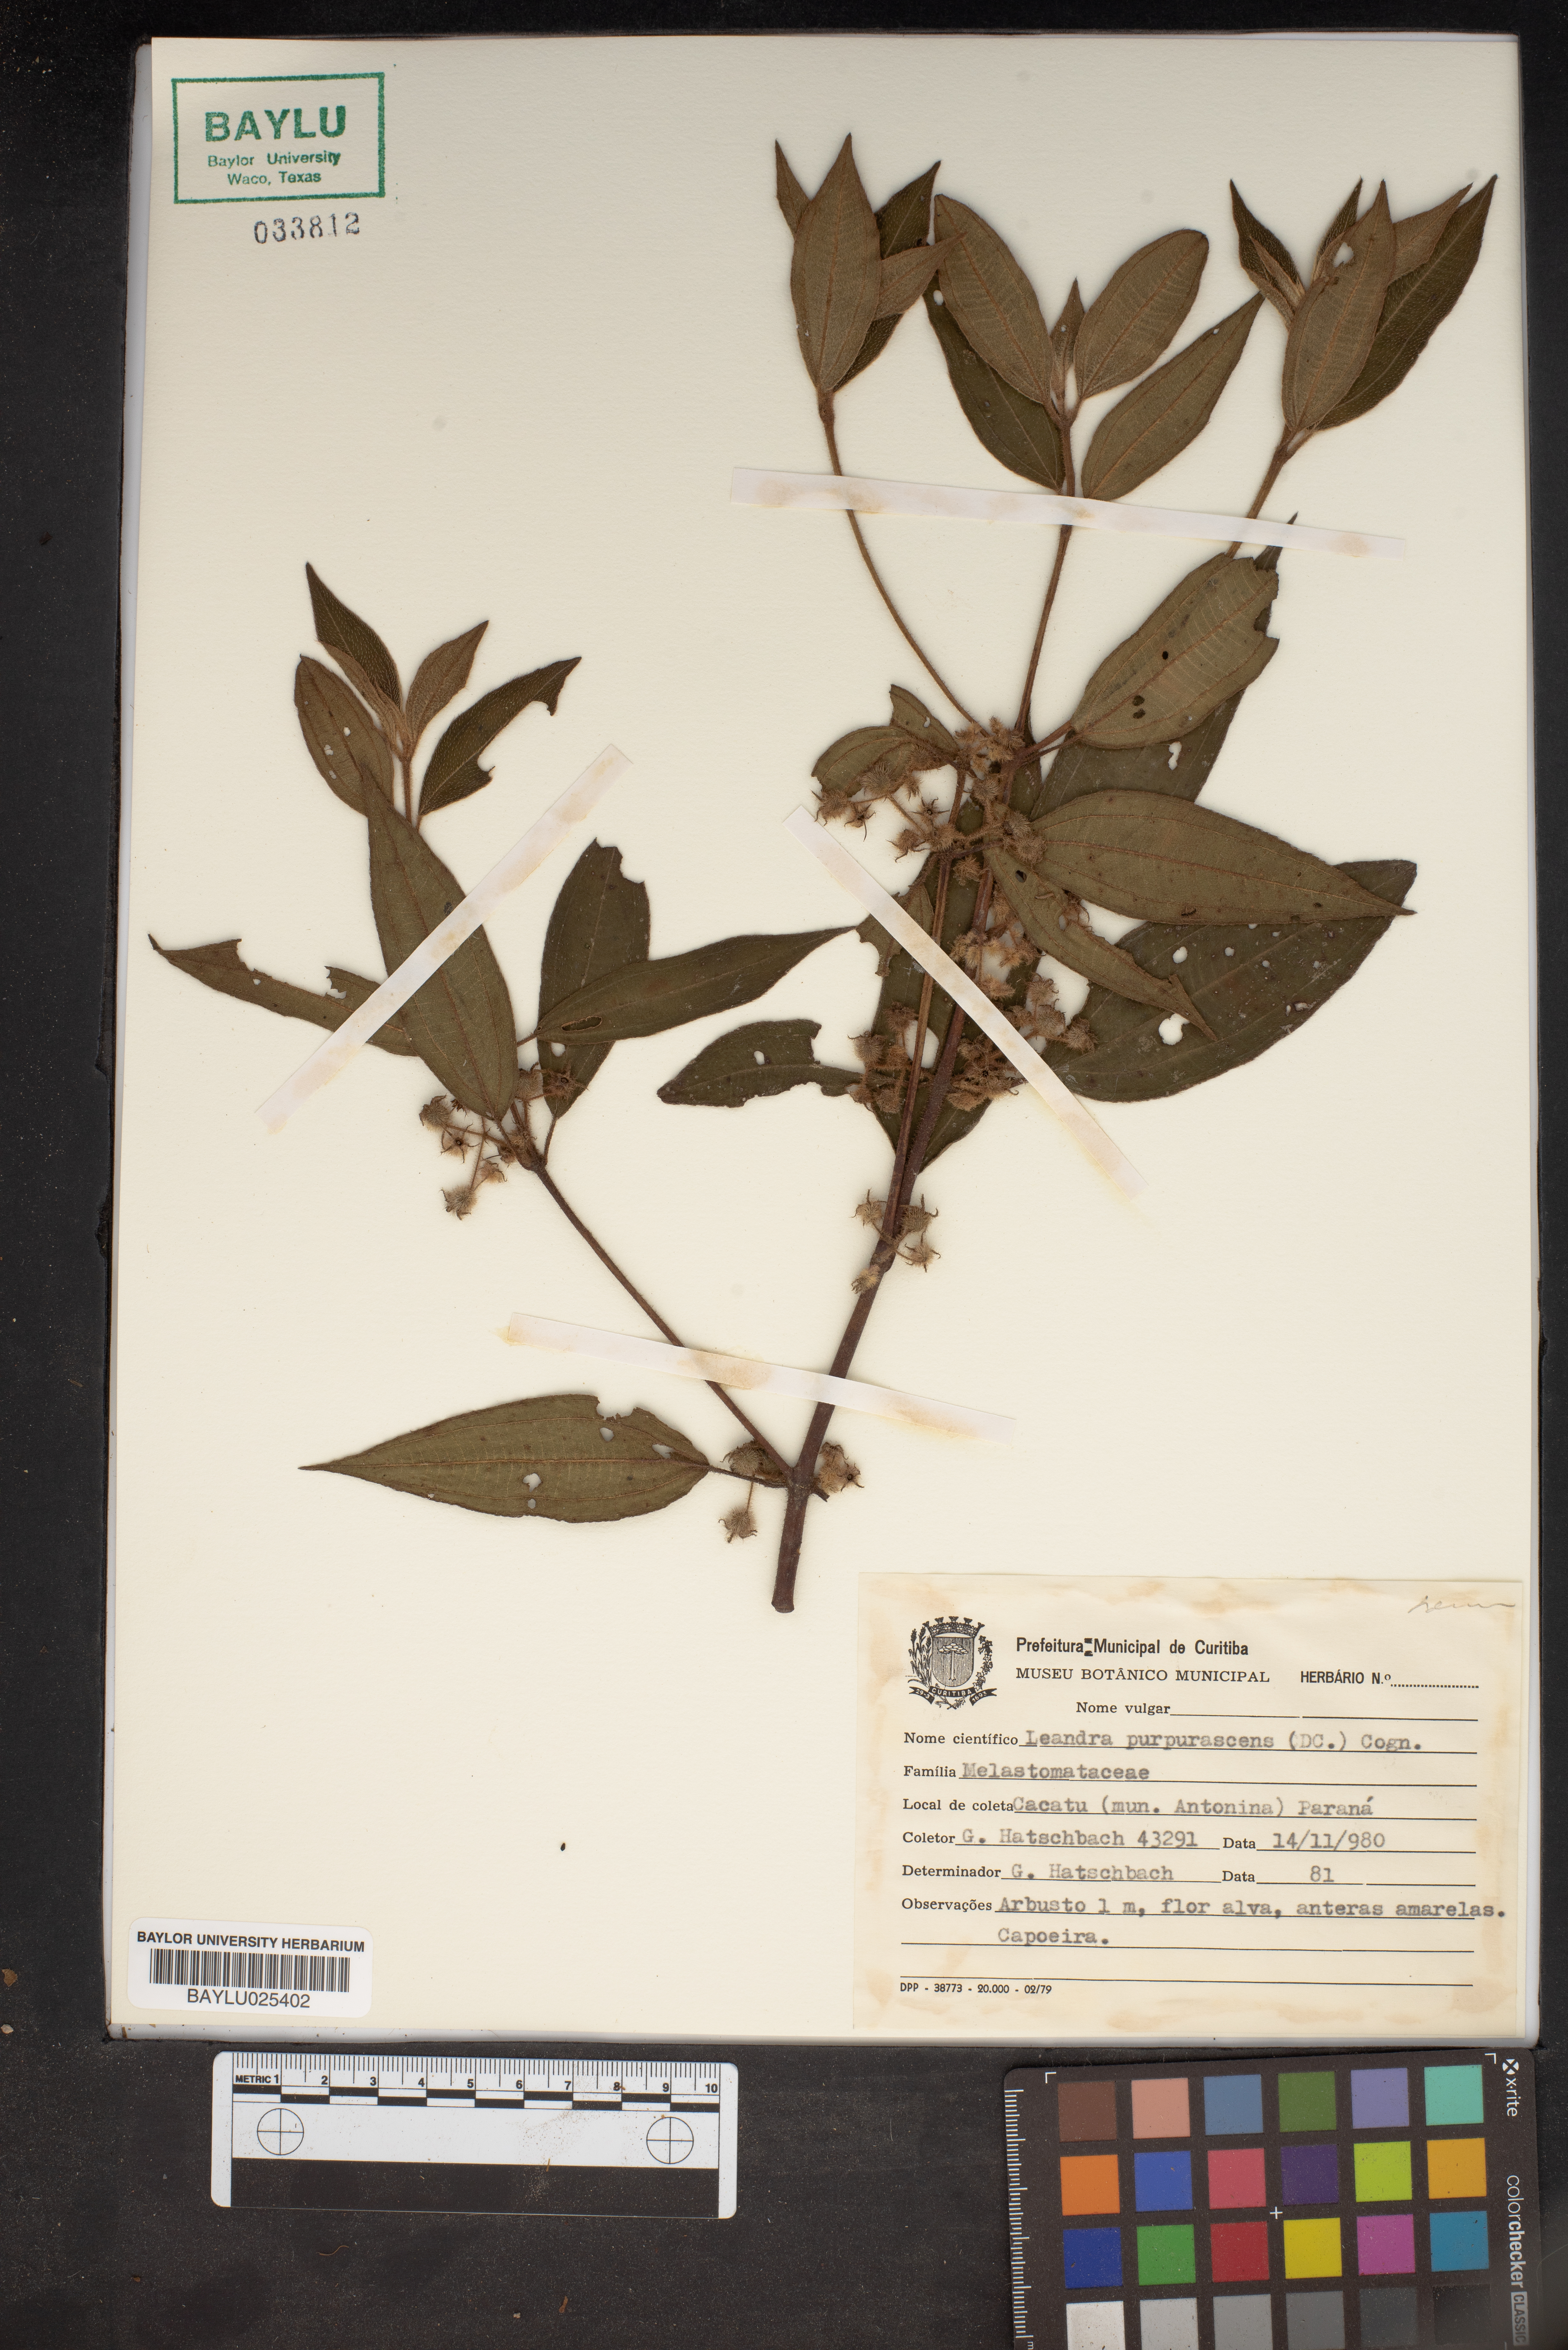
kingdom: Plantae
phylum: Tracheophyta
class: Magnoliopsida
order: Myrtales
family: Melastomataceae
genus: Miconia
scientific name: Miconia microstachya
